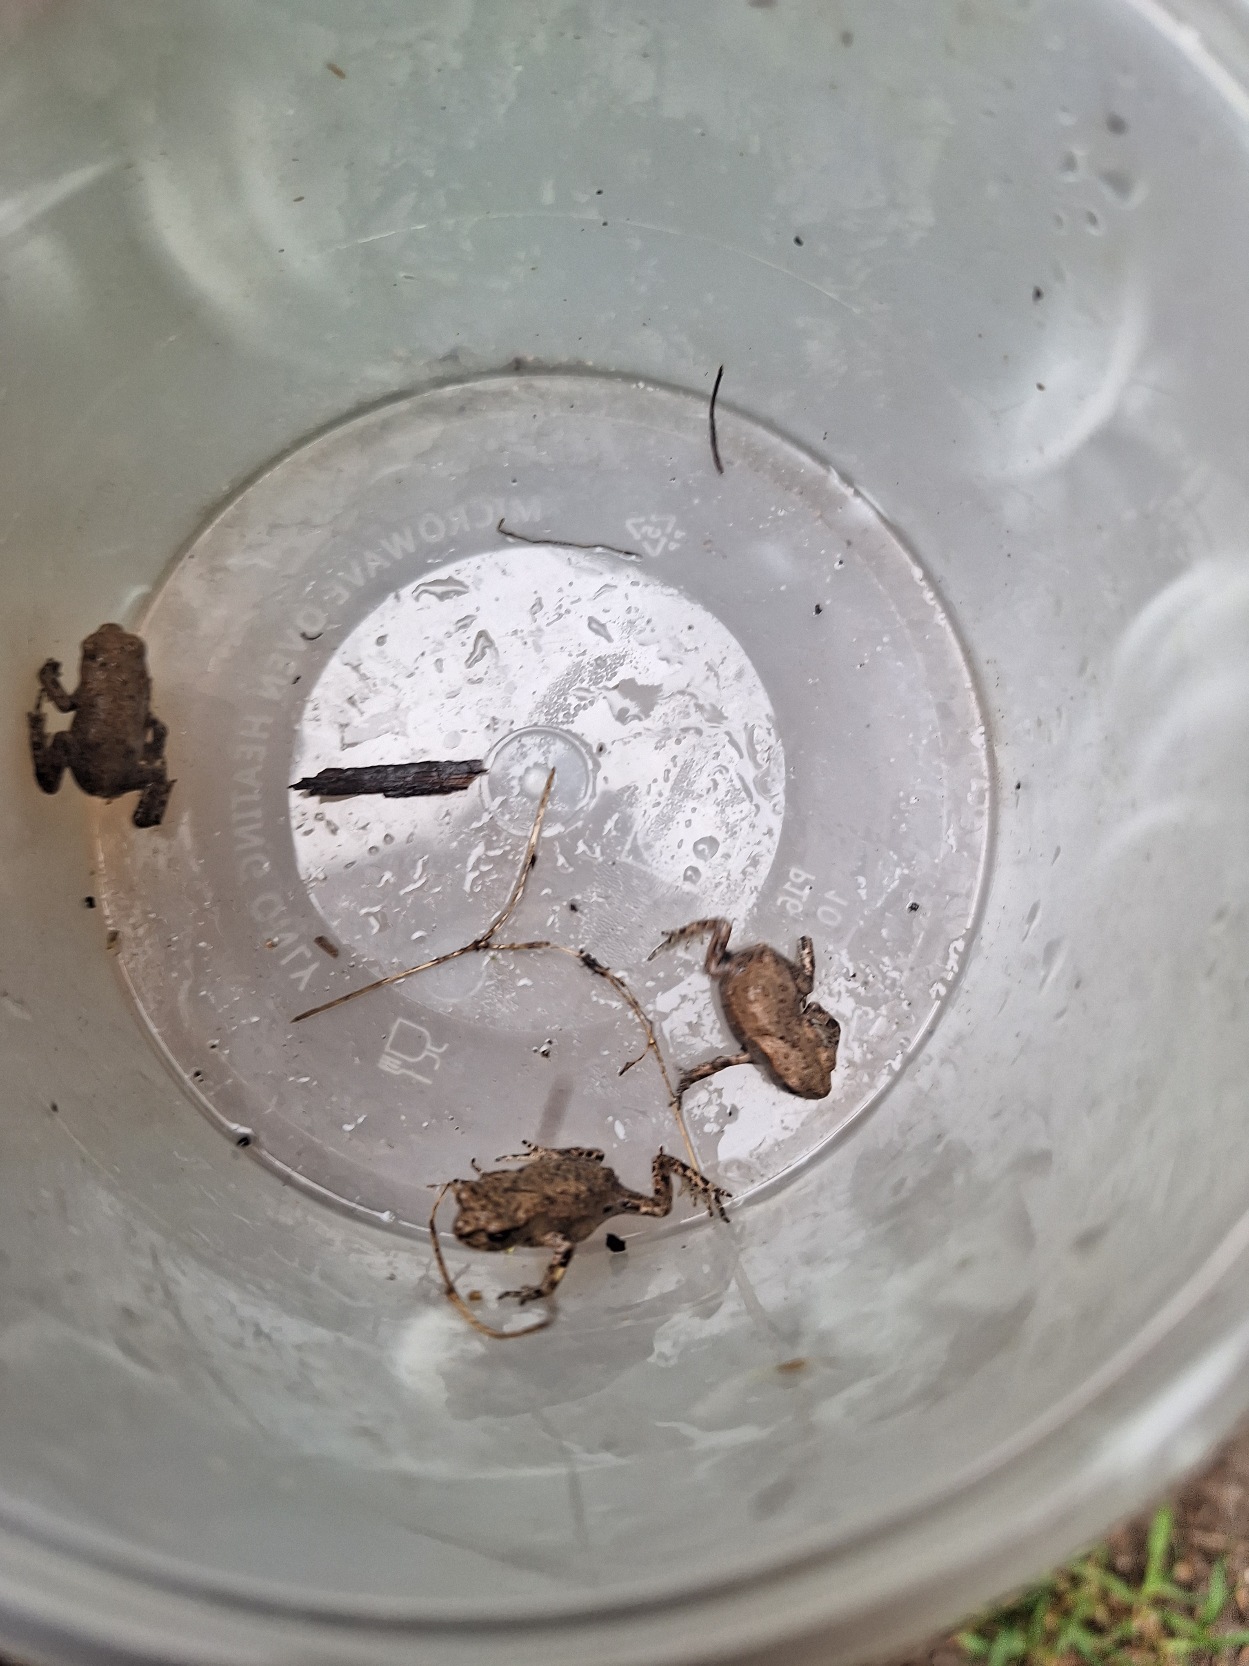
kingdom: Animalia
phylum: Chordata
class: Amphibia
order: Anura
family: Bufonidae
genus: Bufo
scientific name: Bufo bufo
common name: Skrubtudse
